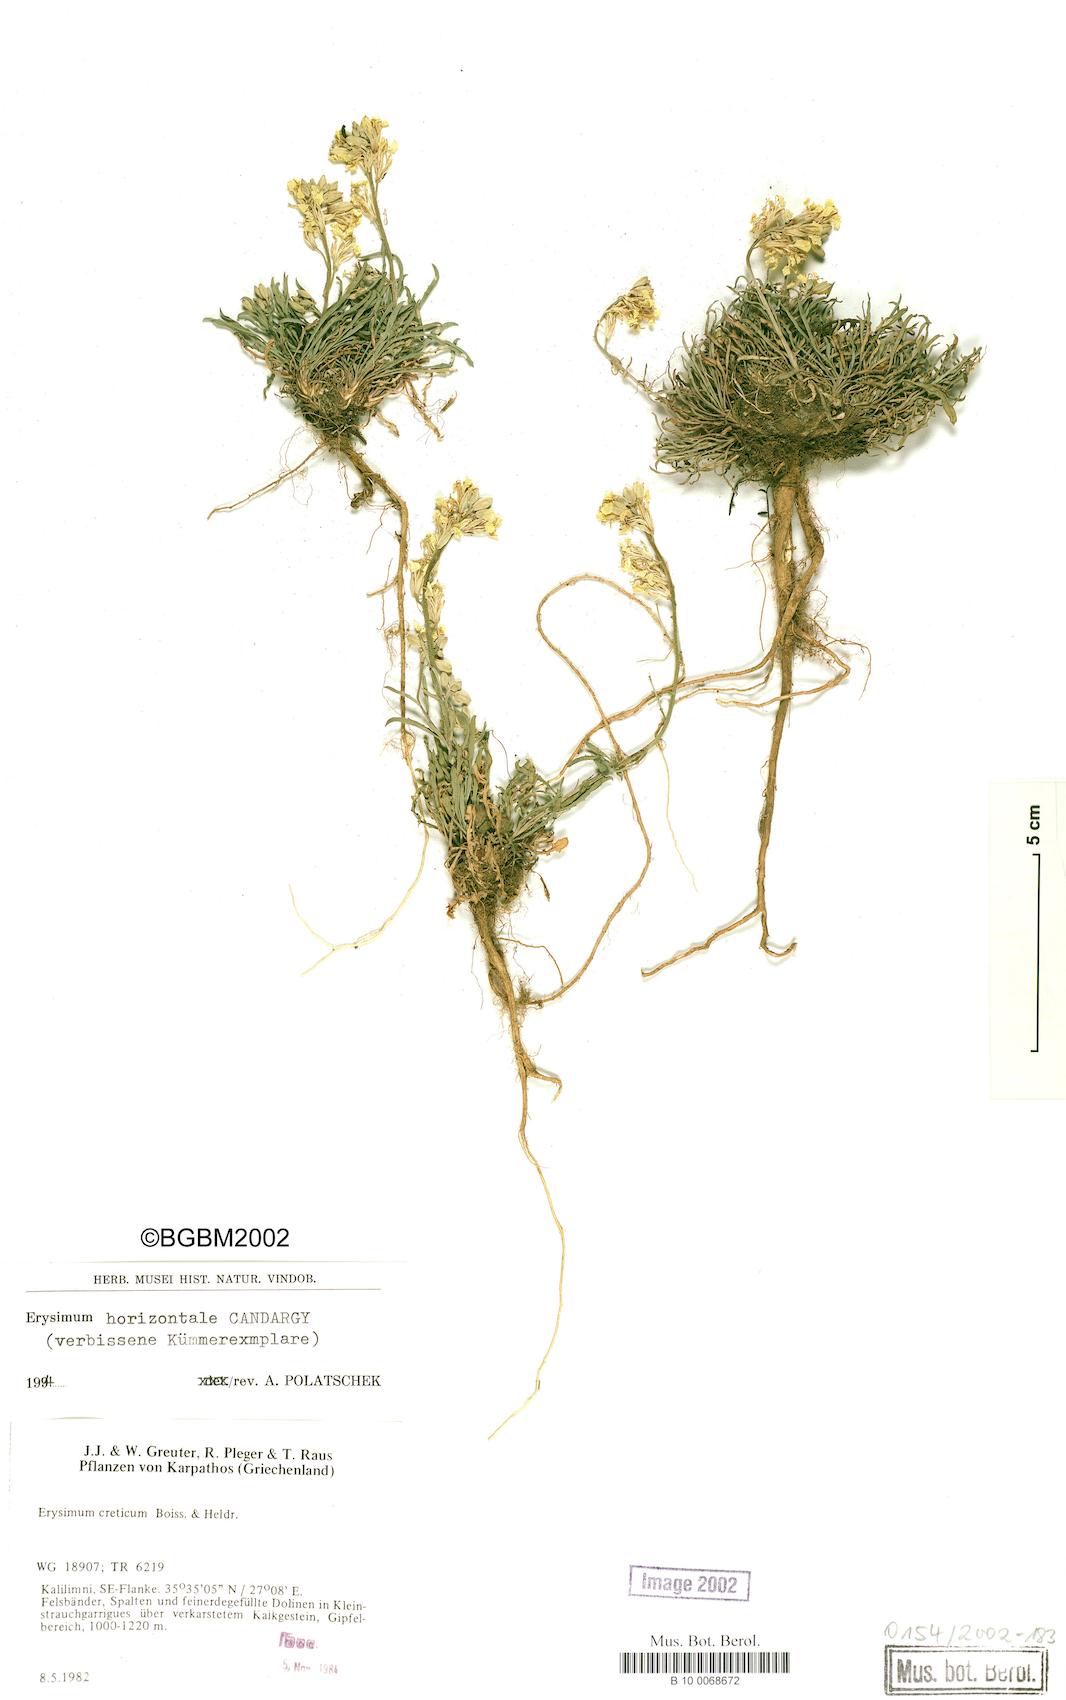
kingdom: Plantae
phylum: Tracheophyta
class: Magnoliopsida
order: Brassicales
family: Brassicaceae
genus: Erysimum
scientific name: Erysimum horizontale
